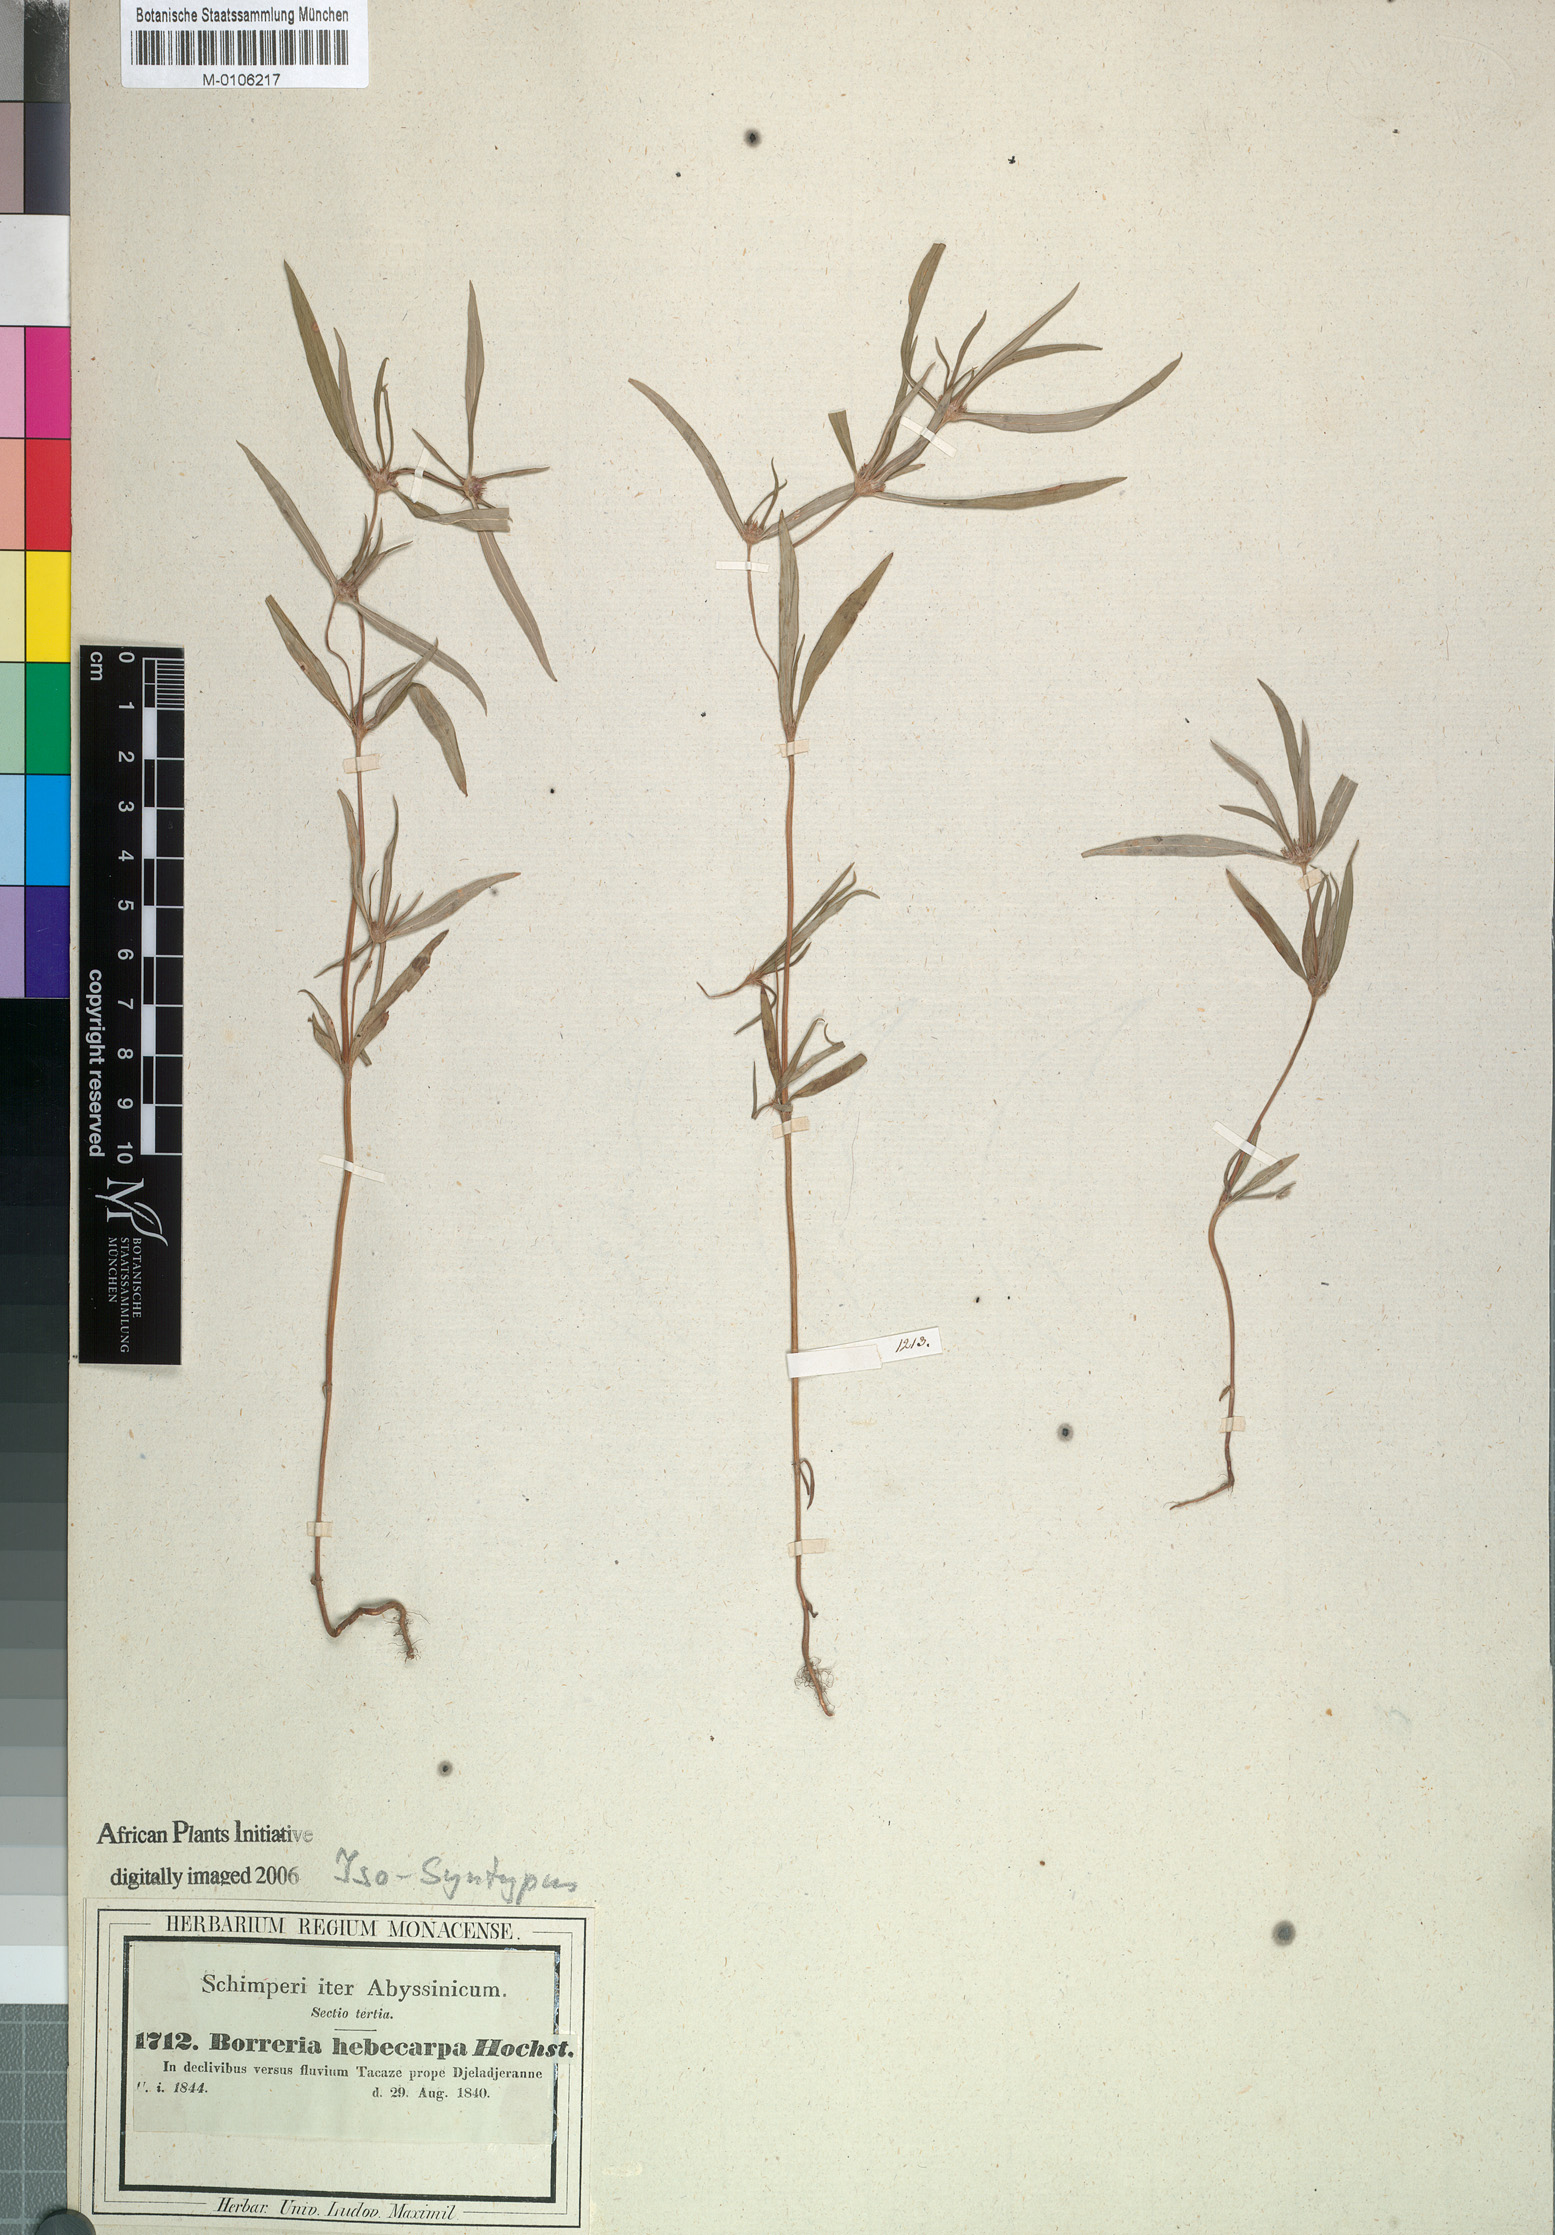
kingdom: Plantae
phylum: Tracheophyta
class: Magnoliopsida
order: Gentianales
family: Rubiaceae
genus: Spermacoce
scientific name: Spermacoce chaetocephala
